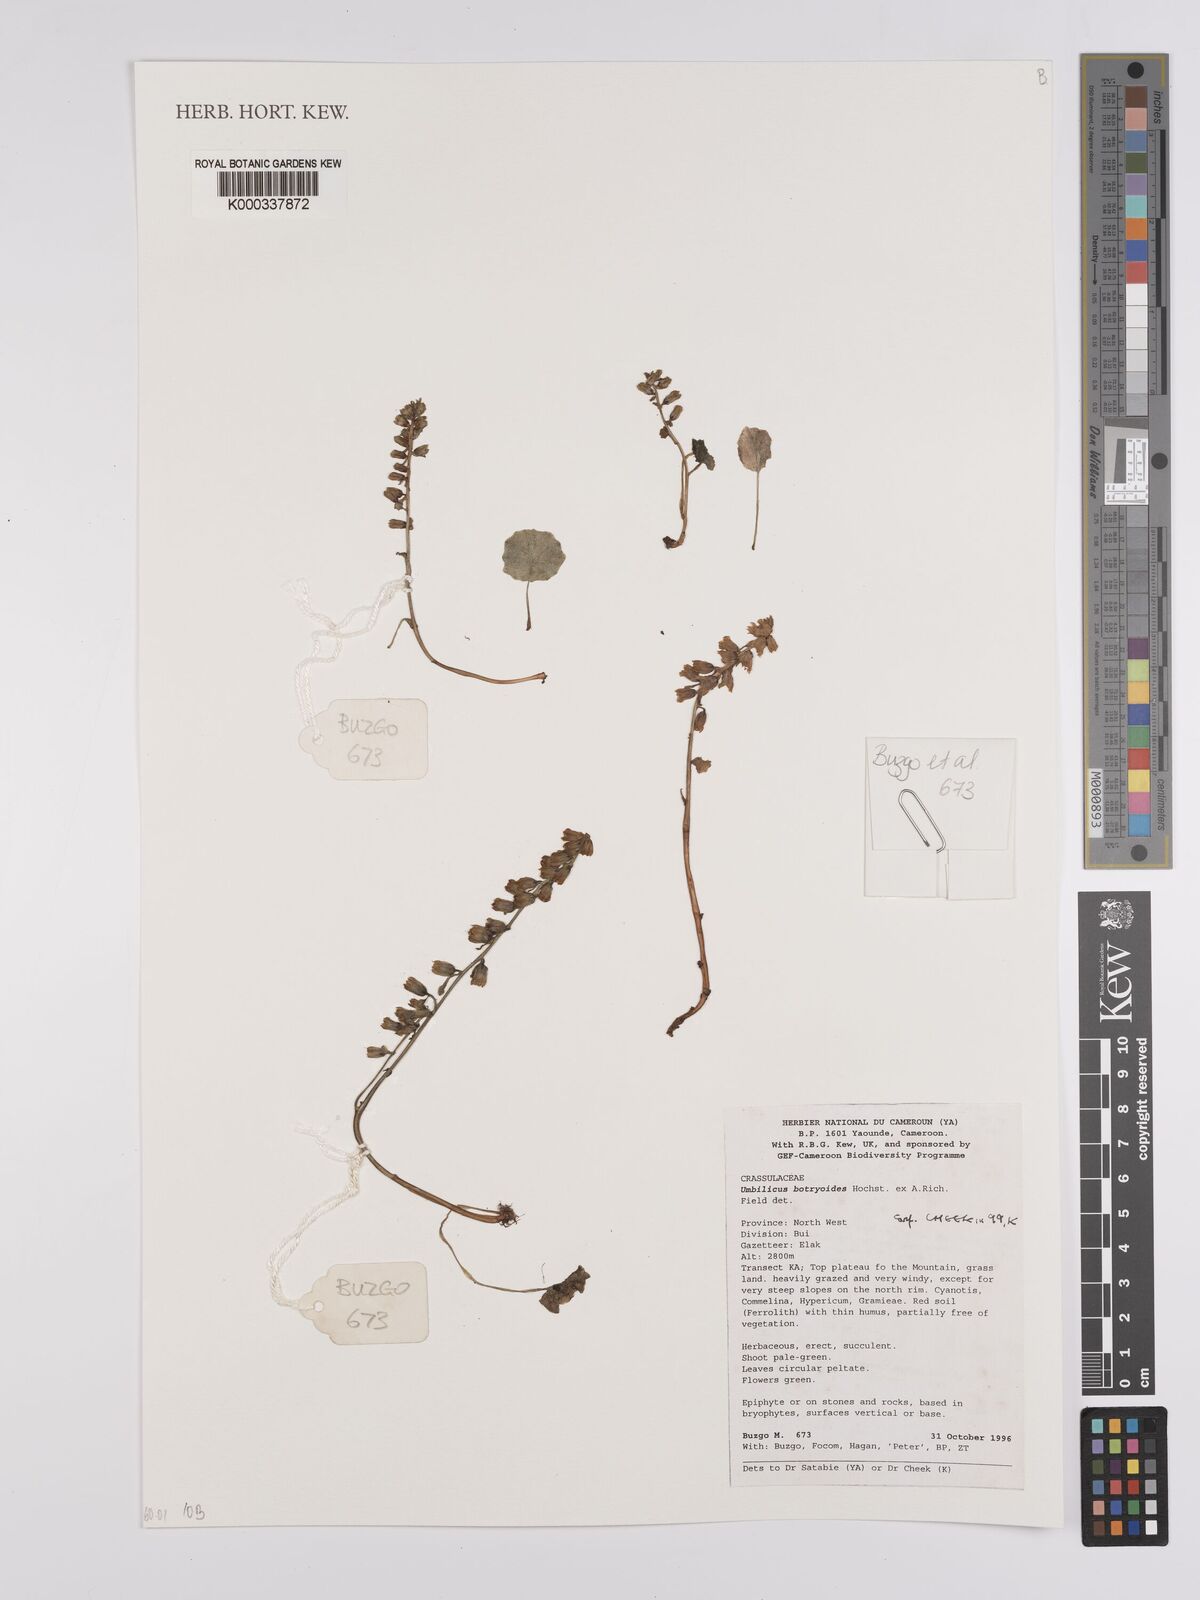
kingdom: Plantae
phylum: Tracheophyta
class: Magnoliopsida
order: Saxifragales
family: Crassulaceae
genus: Umbilicus
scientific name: Umbilicus botryoides
